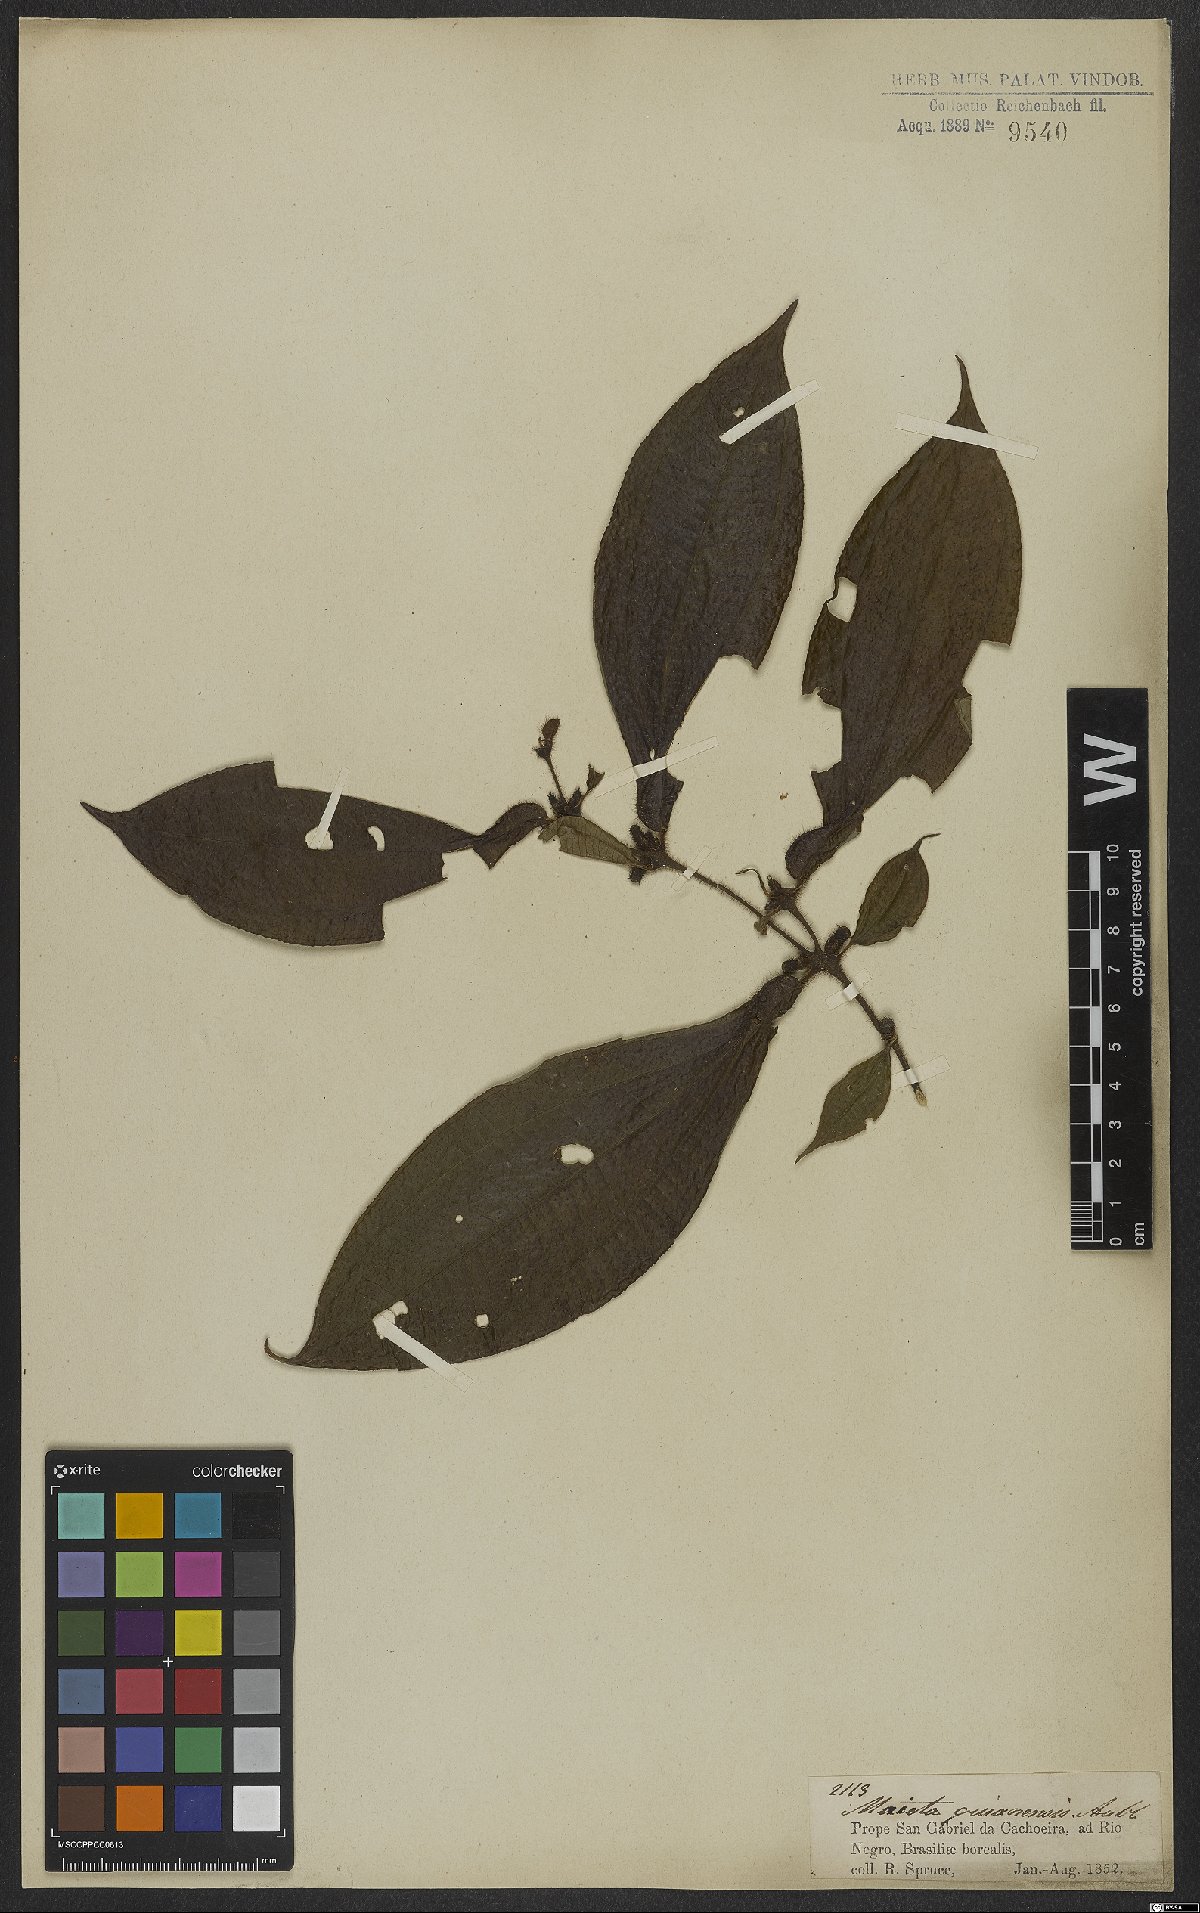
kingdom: Plantae
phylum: Tracheophyta
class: Magnoliopsida
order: Myrtales
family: Melastomataceae
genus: Miconia
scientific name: Miconia mayeta
